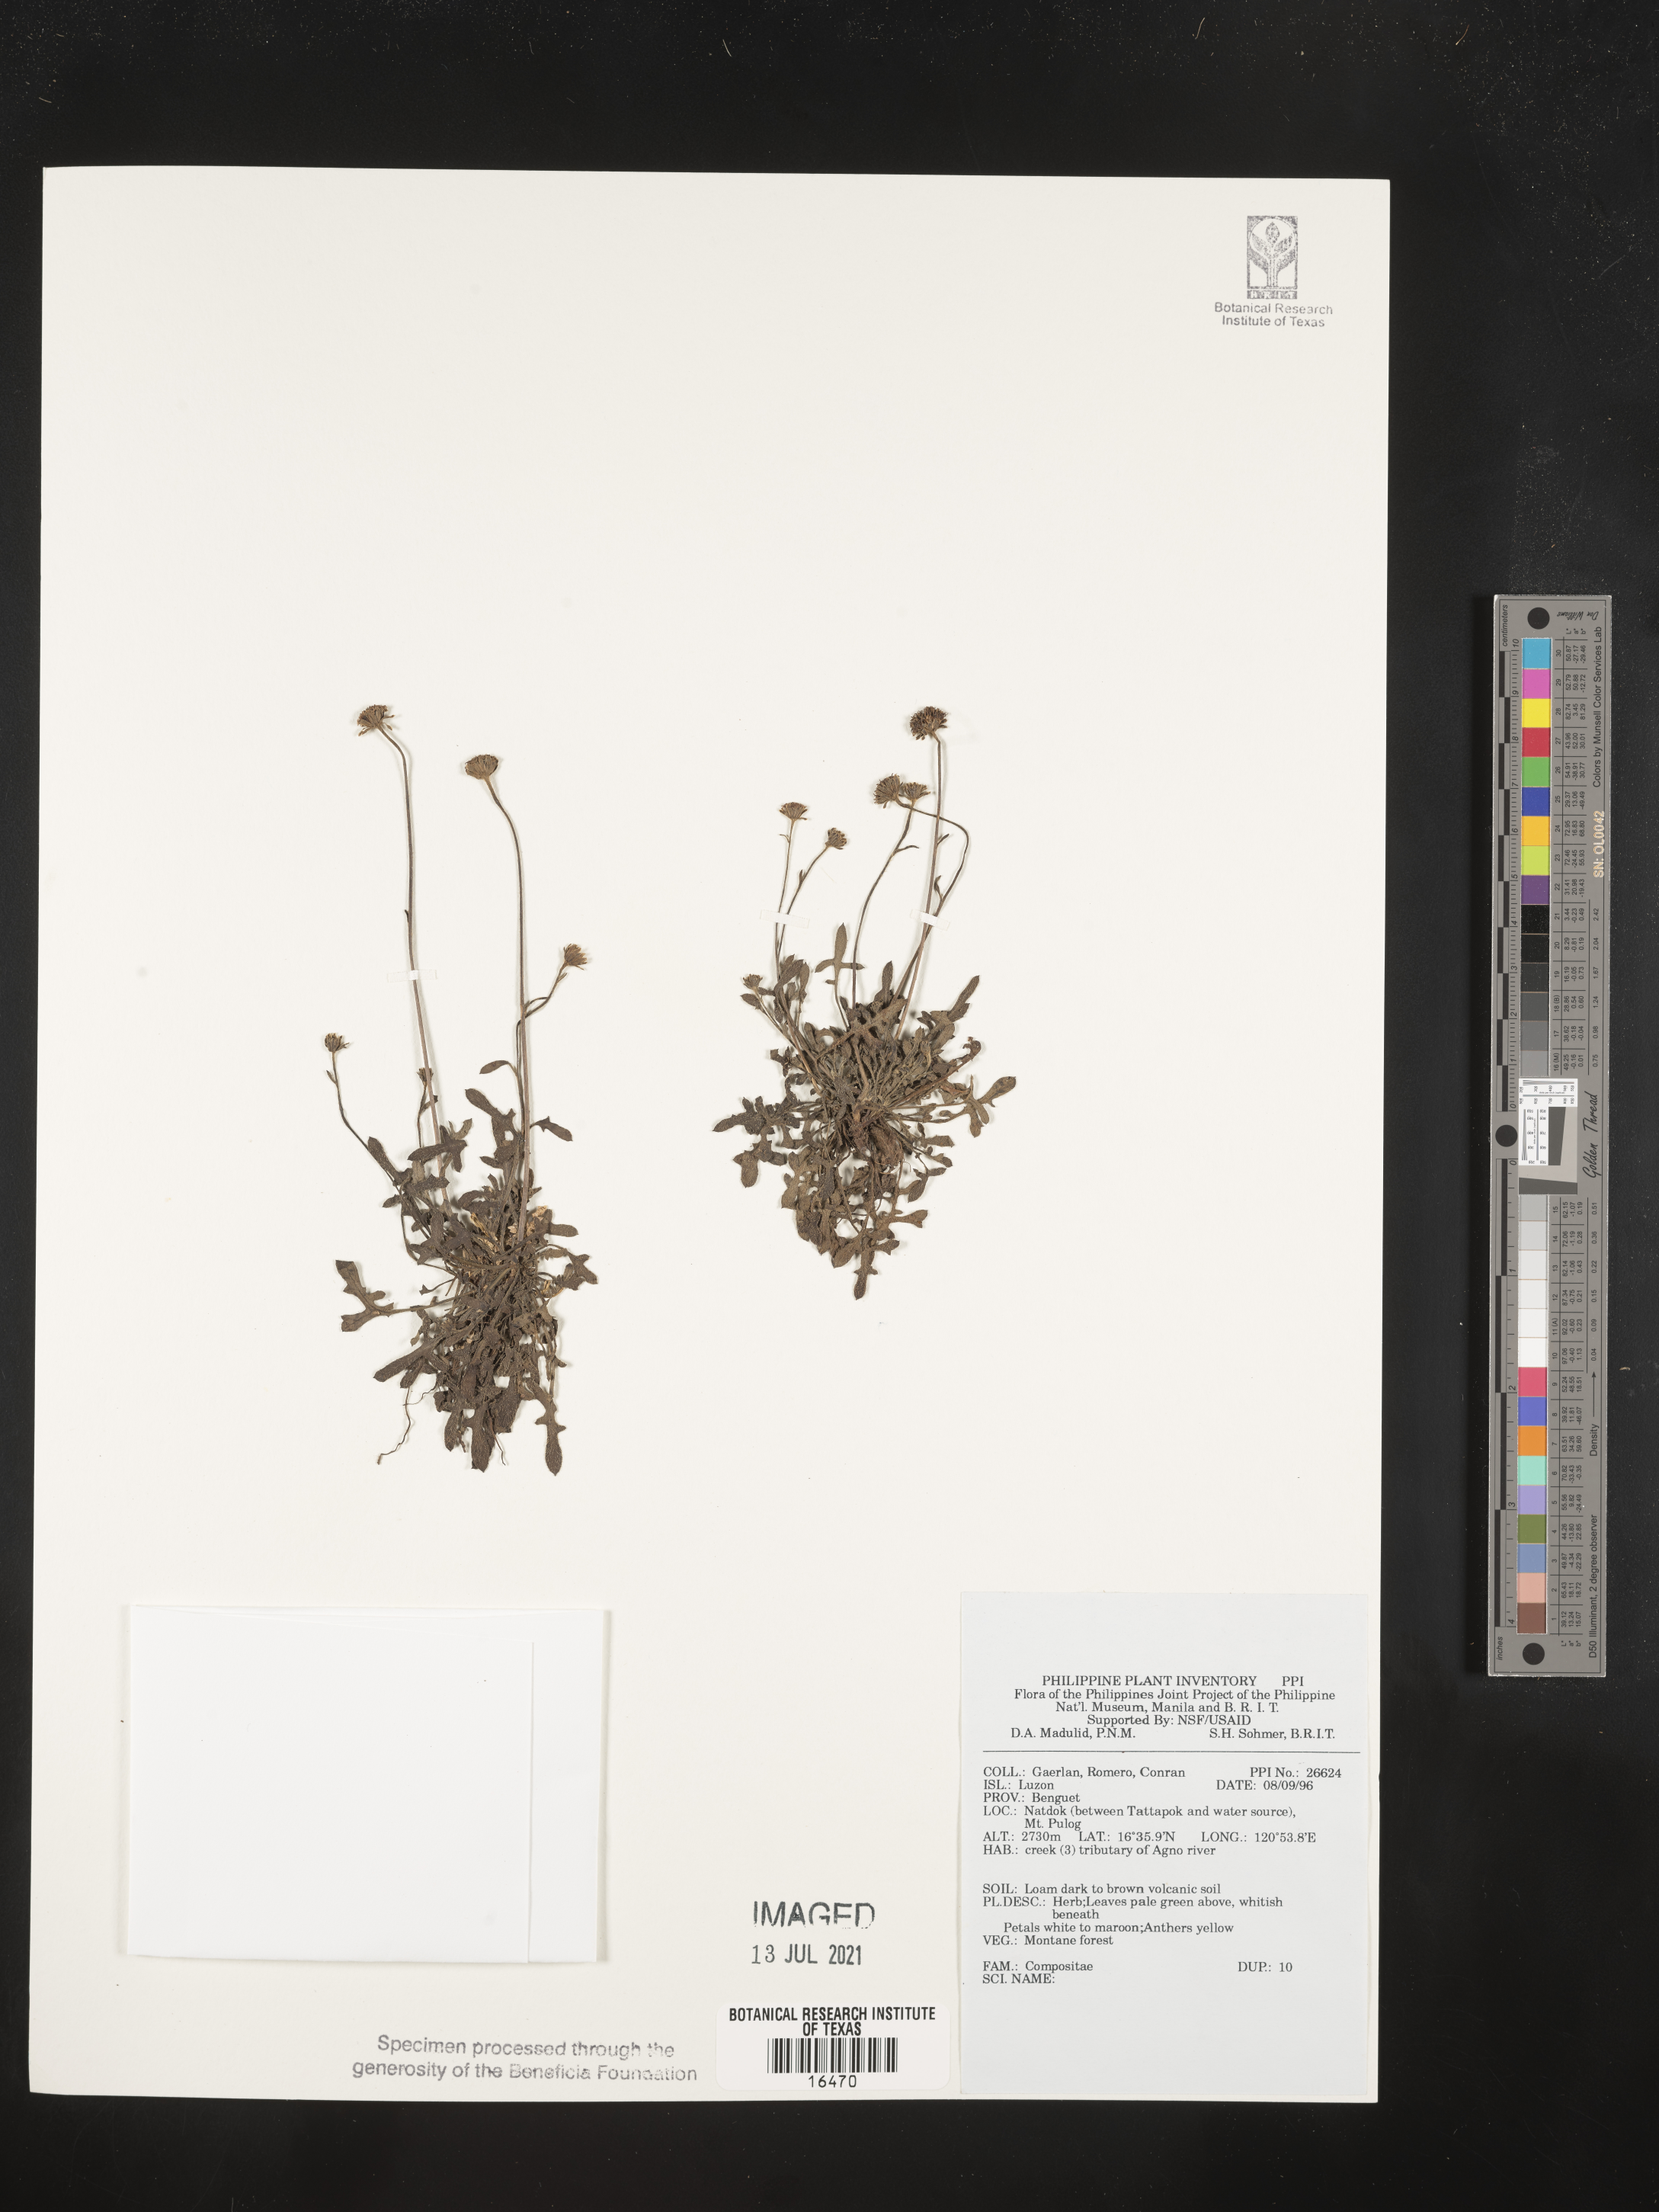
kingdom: Plantae
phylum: Tracheophyta
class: Magnoliopsida
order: Asterales
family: Asteraceae
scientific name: Asteraceae
